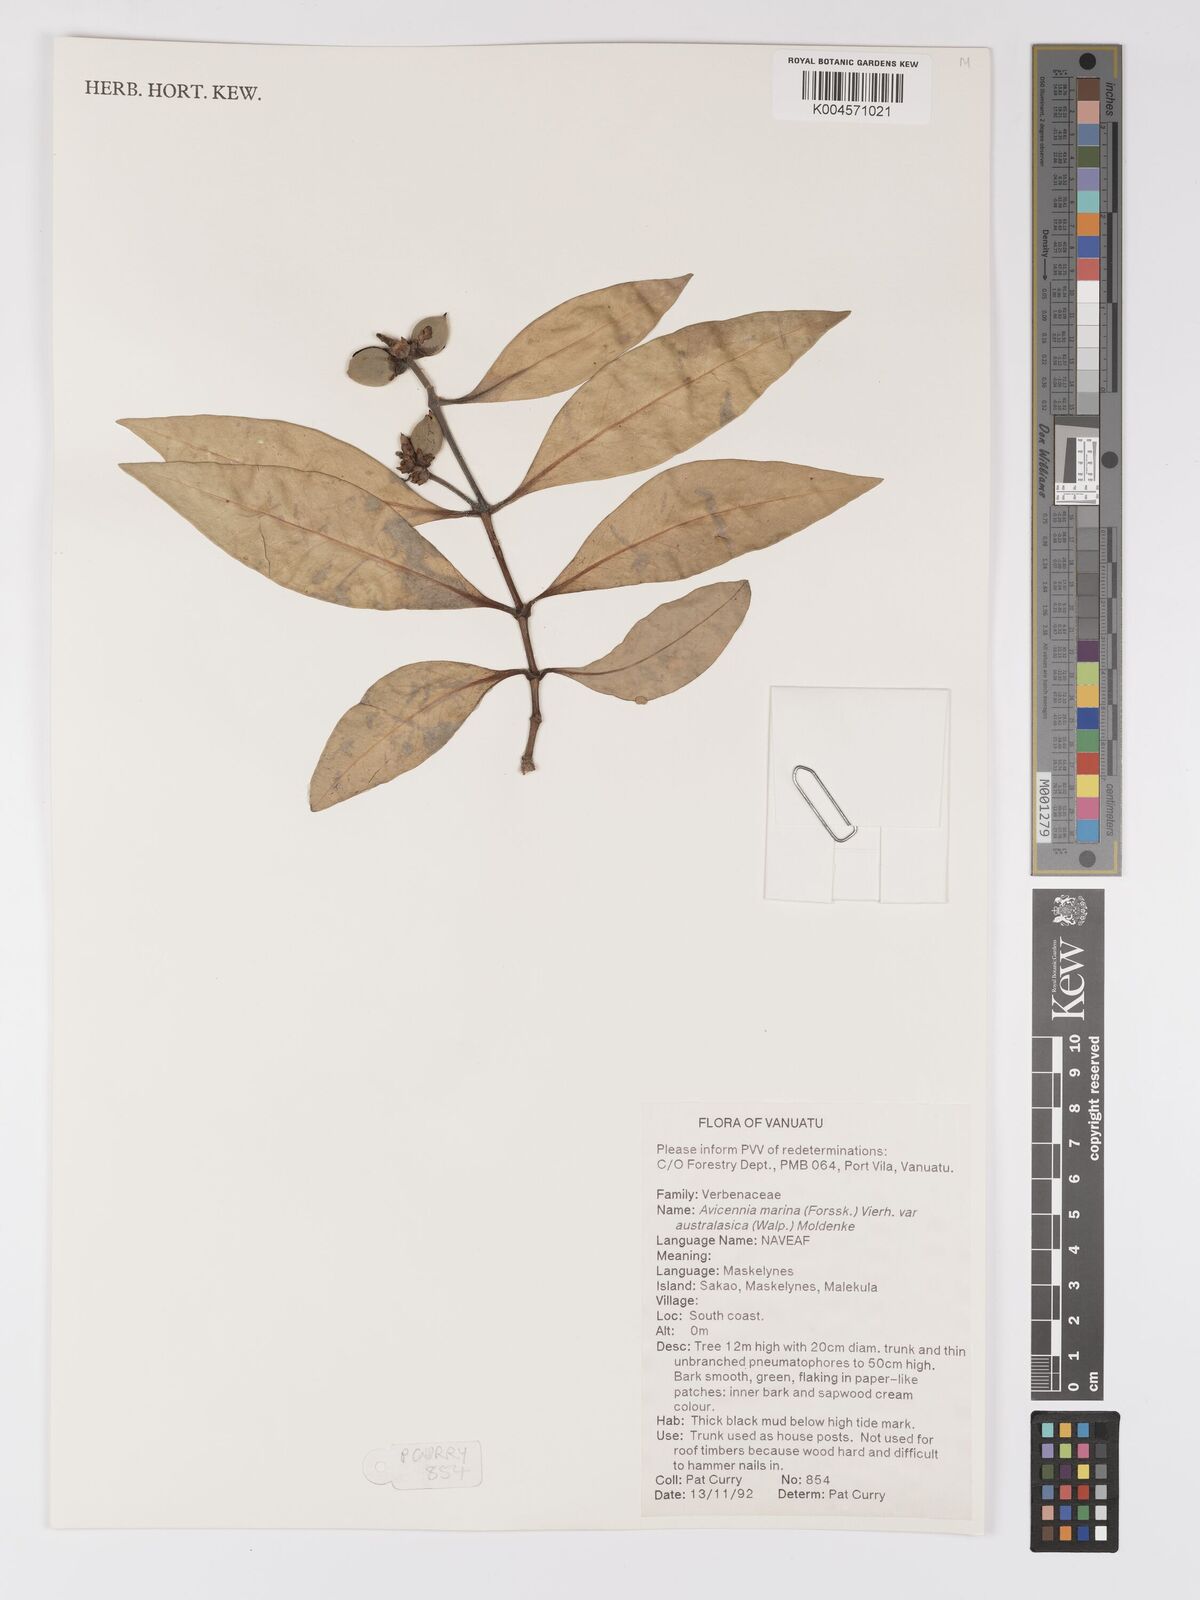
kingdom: Plantae
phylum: Tracheophyta
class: Magnoliopsida
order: Lamiales
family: Acanthaceae
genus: Avicennia
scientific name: Avicennia marina
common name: Gray mangrove
